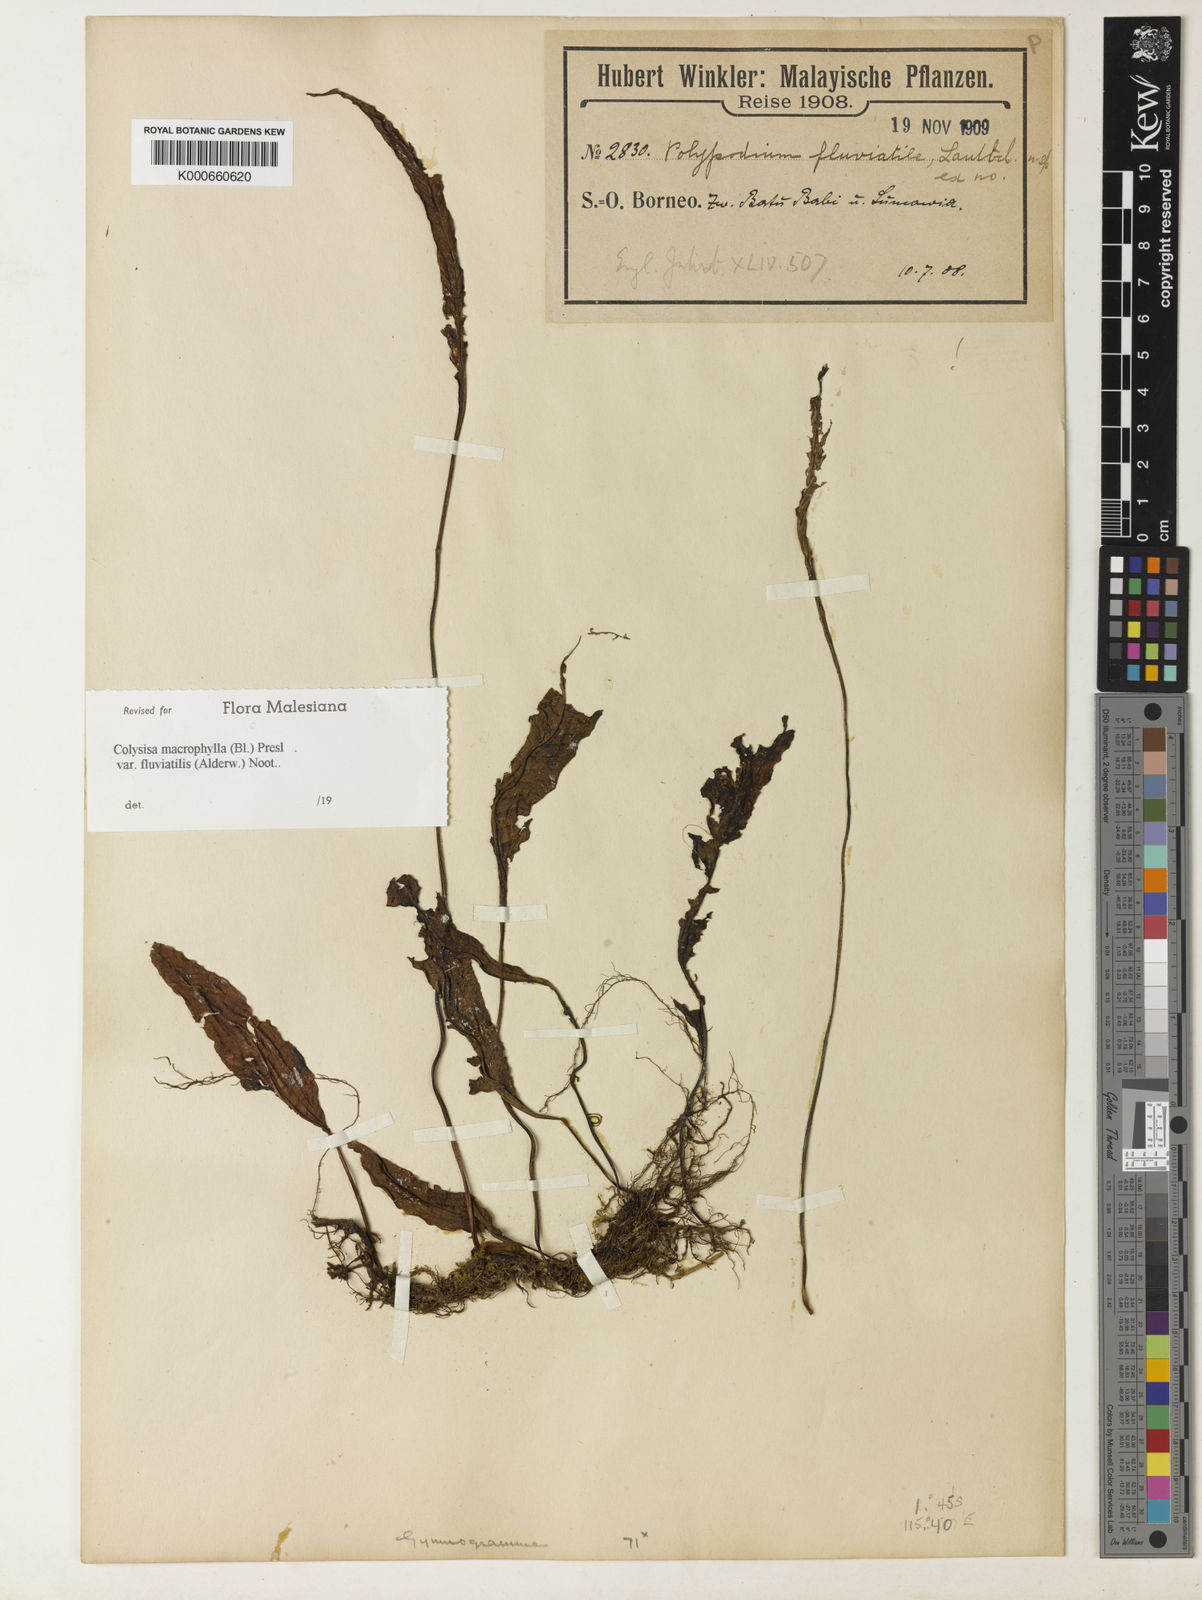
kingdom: Plantae
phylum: Tracheophyta
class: Polypodiopsida
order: Polypodiales
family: Polypodiaceae
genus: Leptochilus
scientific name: Leptochilus macrophyllus
